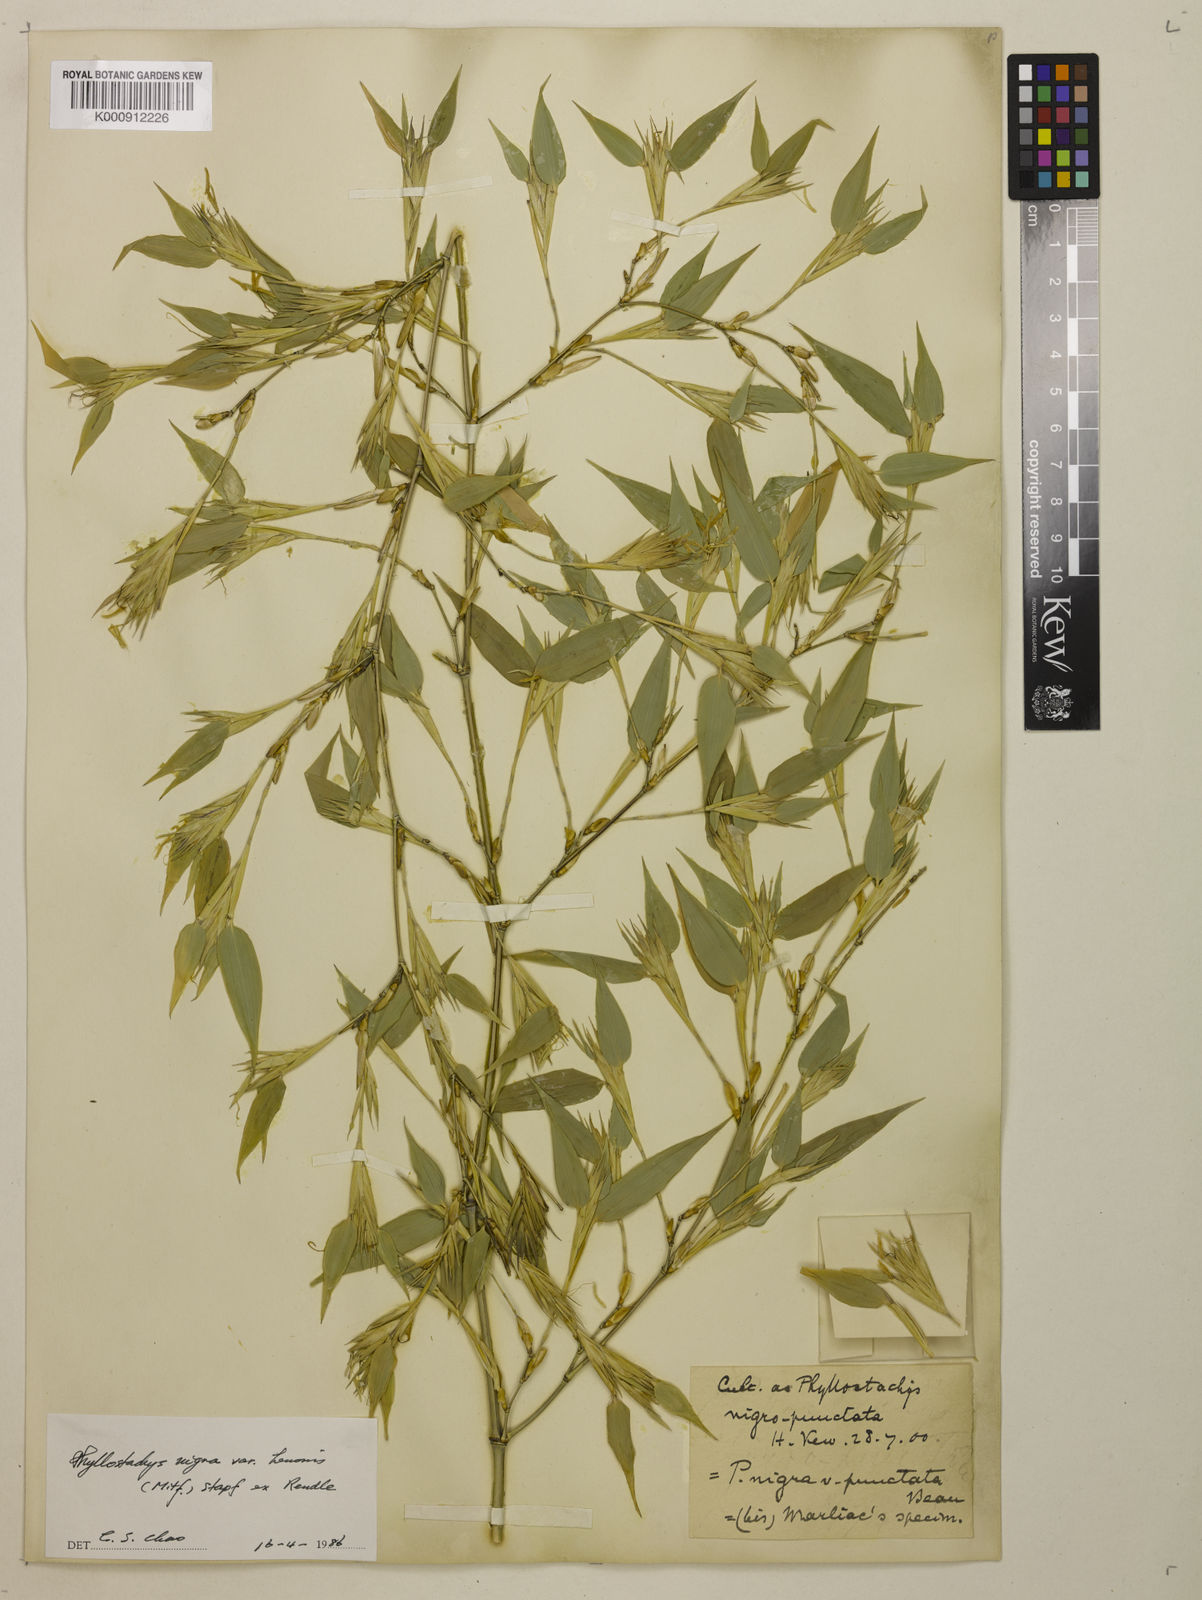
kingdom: Plantae
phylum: Tracheophyta
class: Liliopsida
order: Poales
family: Poaceae
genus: Phyllostachys
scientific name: Phyllostachys nigra
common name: Black bamboo
